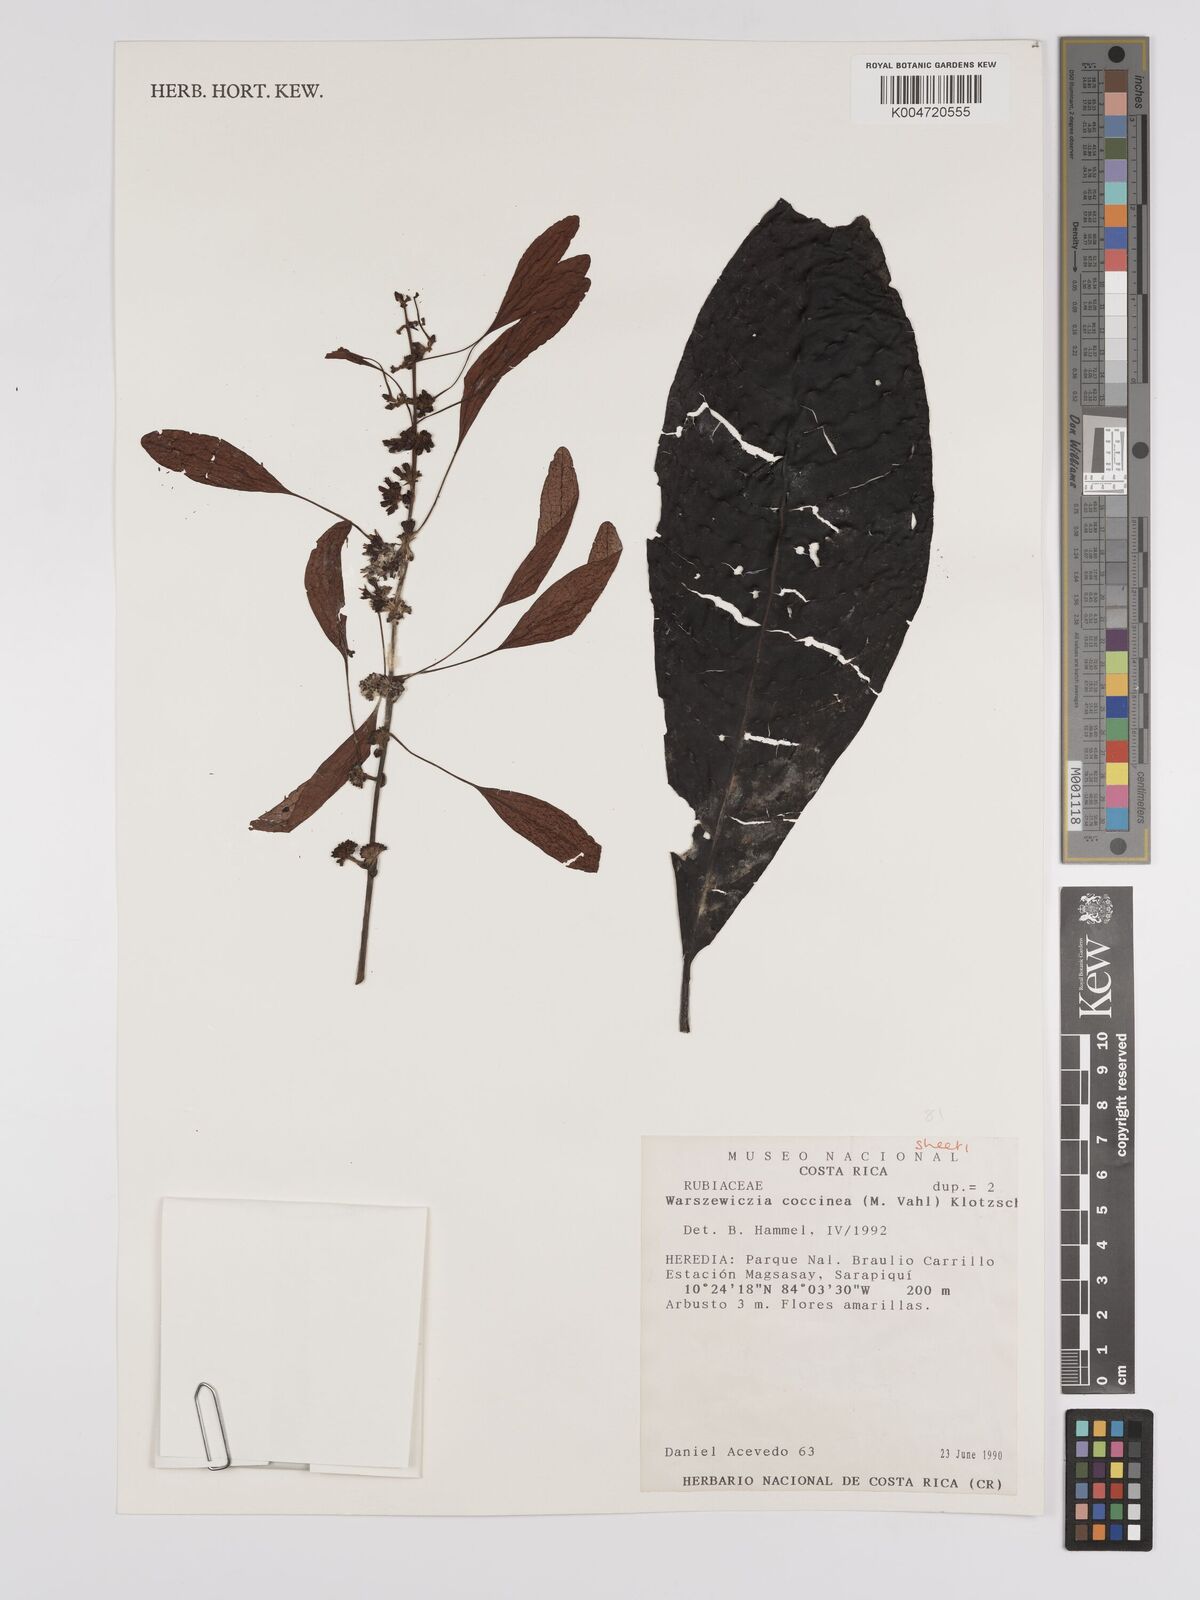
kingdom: Plantae
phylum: Tracheophyta
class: Magnoliopsida
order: Gentianales
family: Rubiaceae
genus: Warszewiczia
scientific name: Warszewiczia coccinea
